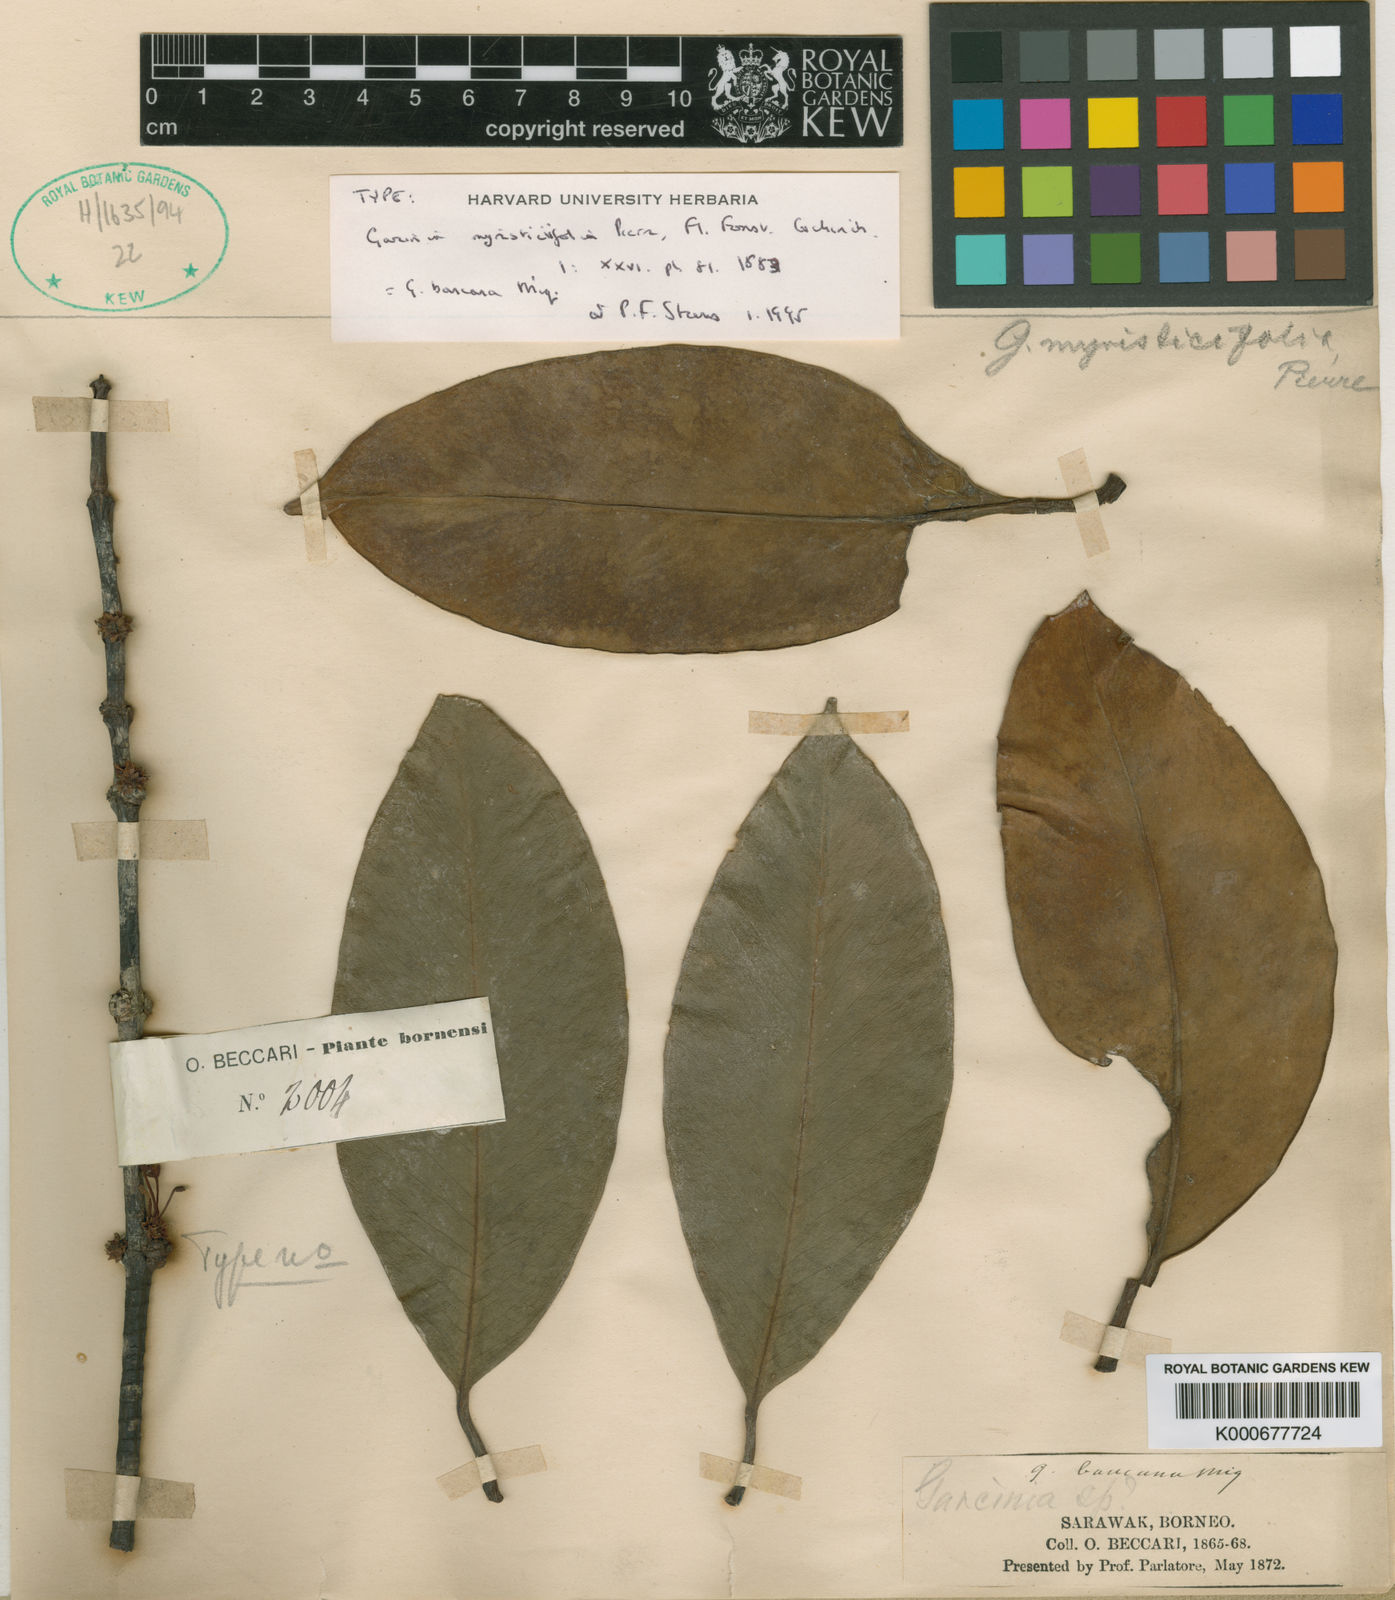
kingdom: Plantae
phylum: Tracheophyta
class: Magnoliopsida
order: Malpighiales
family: Clusiaceae
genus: Garcinia
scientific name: Garcinia myristicifolia
